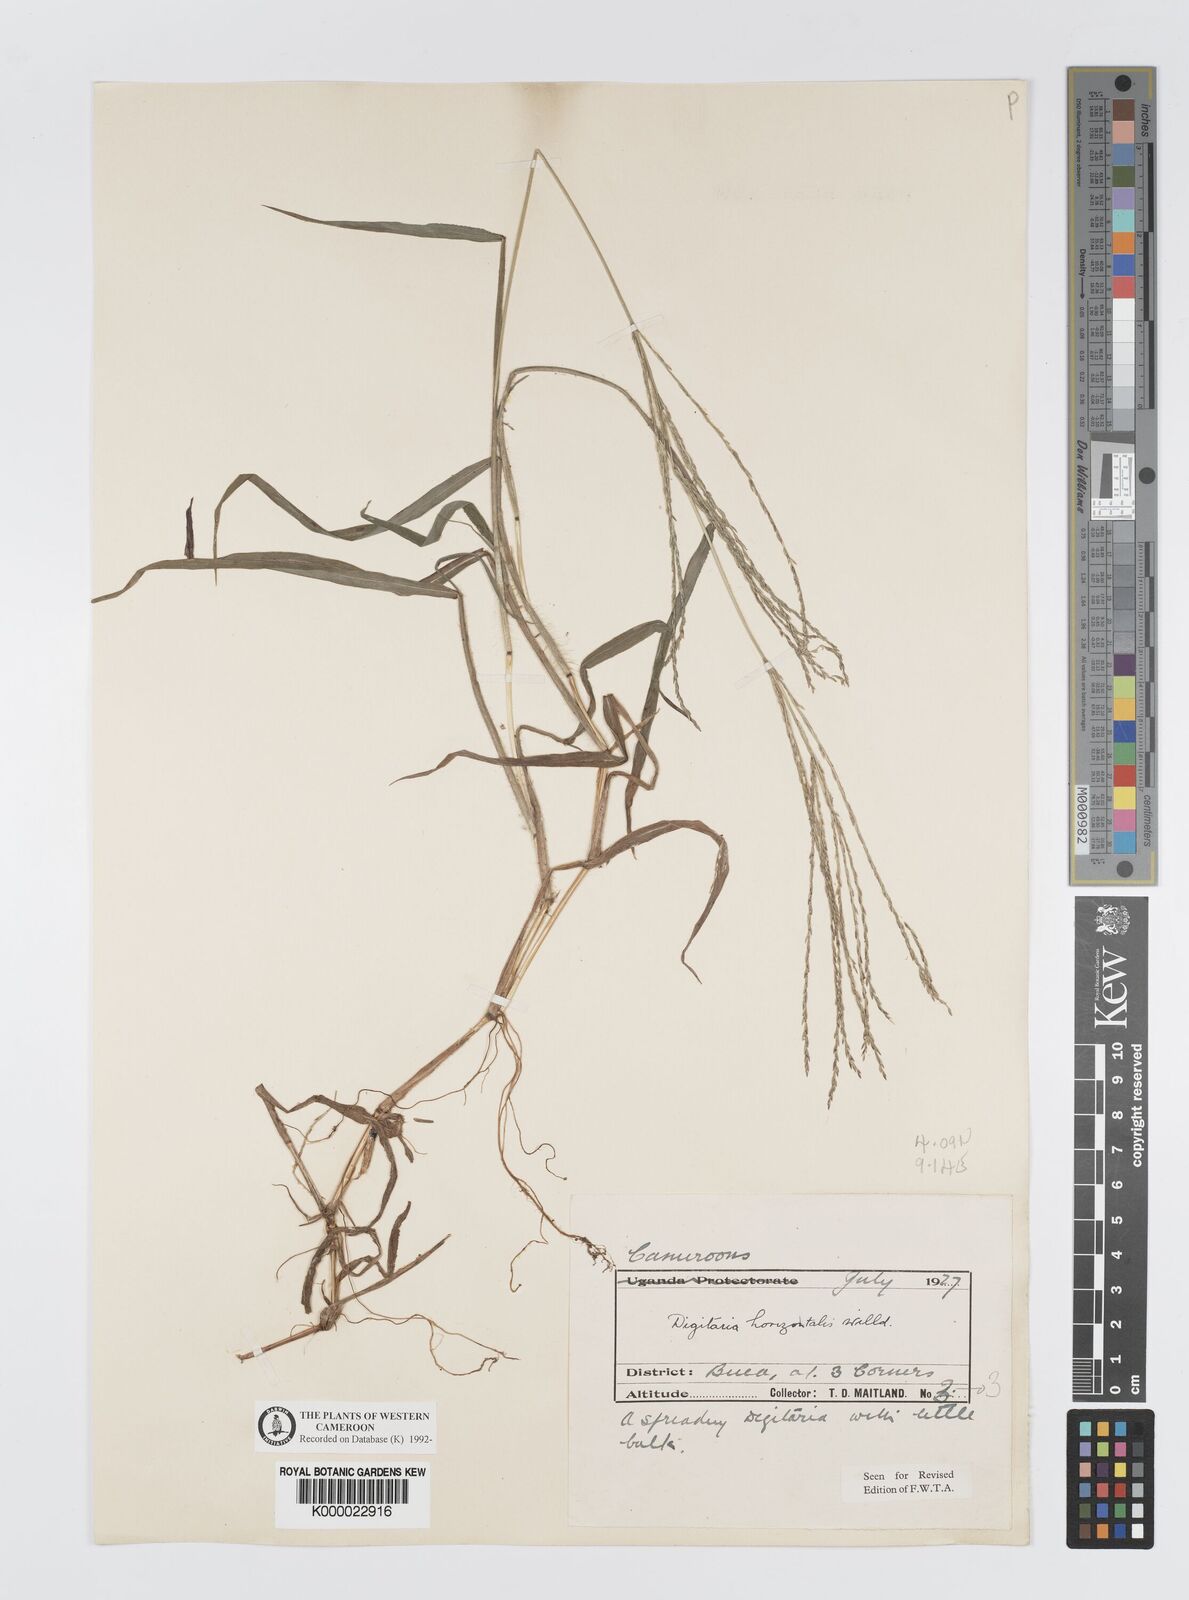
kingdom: Plantae
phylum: Tracheophyta
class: Liliopsida
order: Poales
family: Poaceae
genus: Digitaria
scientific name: Digitaria horizontalis
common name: Jamaican crabgrass
